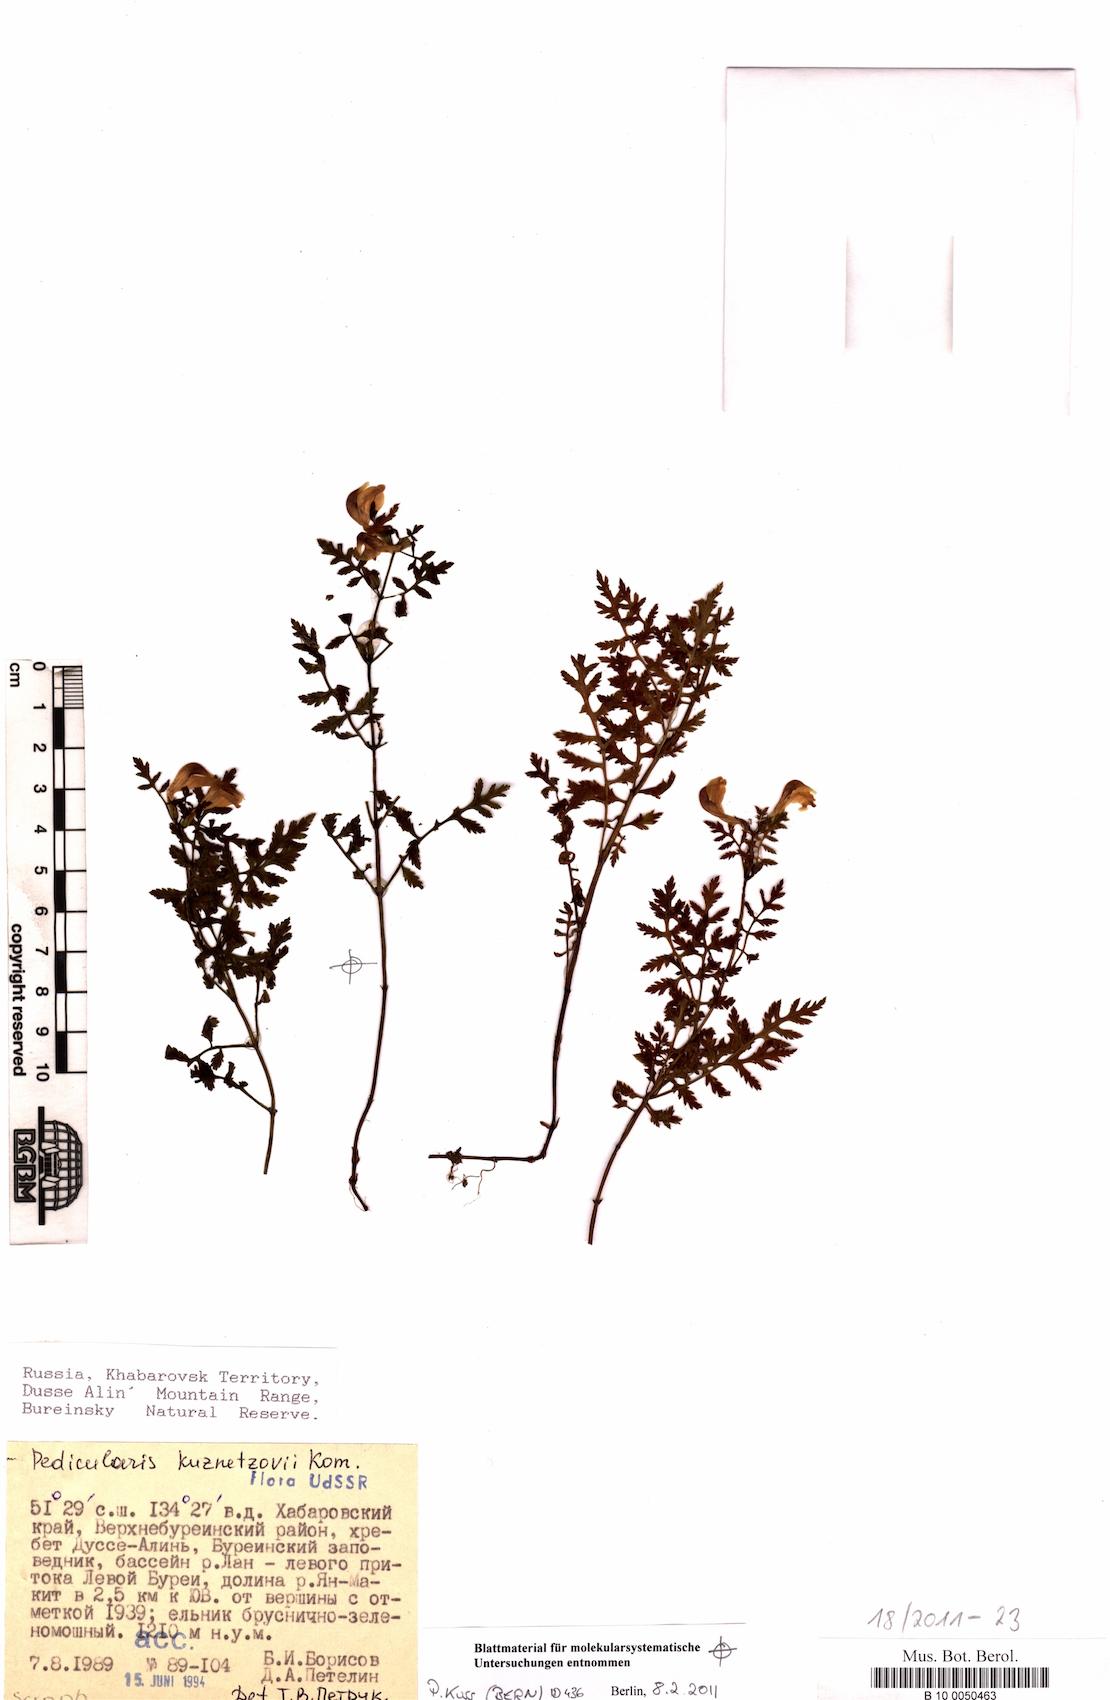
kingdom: Plantae
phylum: Tracheophyta
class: Magnoliopsida
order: Lamiales
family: Orobanchaceae
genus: Pedicularis
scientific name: Pedicularis kuznetzovii
